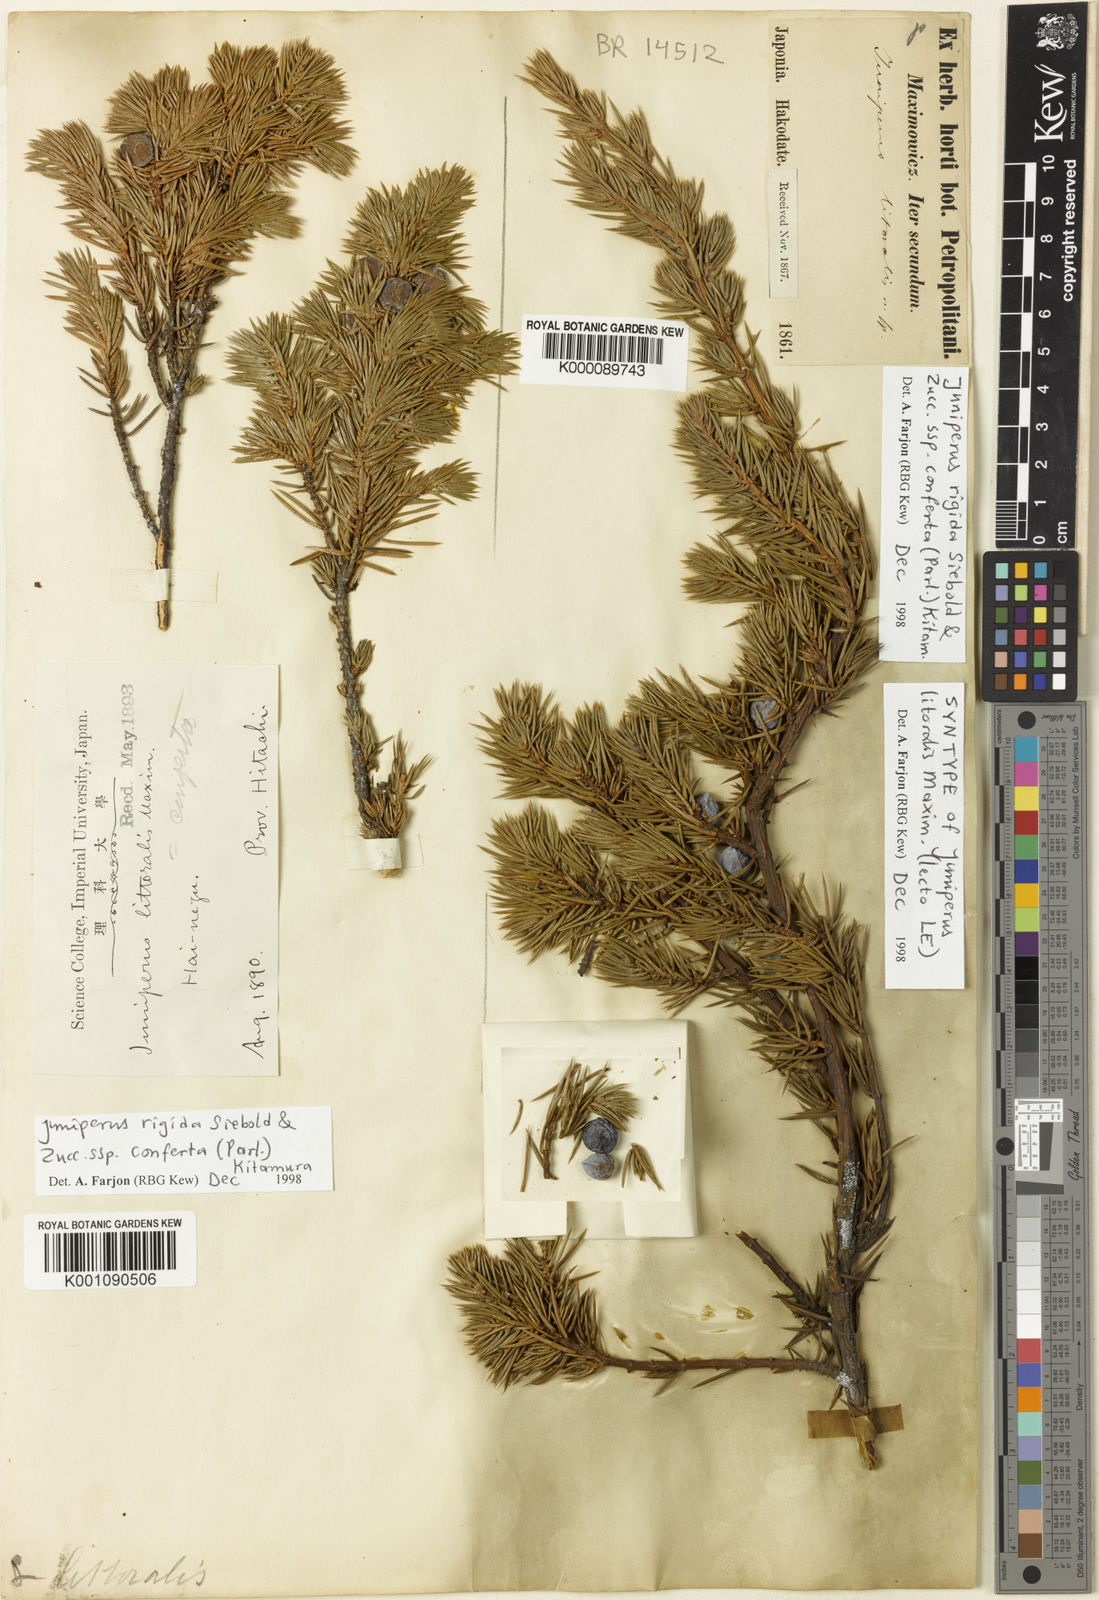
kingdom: Plantae
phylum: Tracheophyta
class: Pinopsida
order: Pinales
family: Cupressaceae
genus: Juniperus
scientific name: Juniperus rigida
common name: Needle juniper
